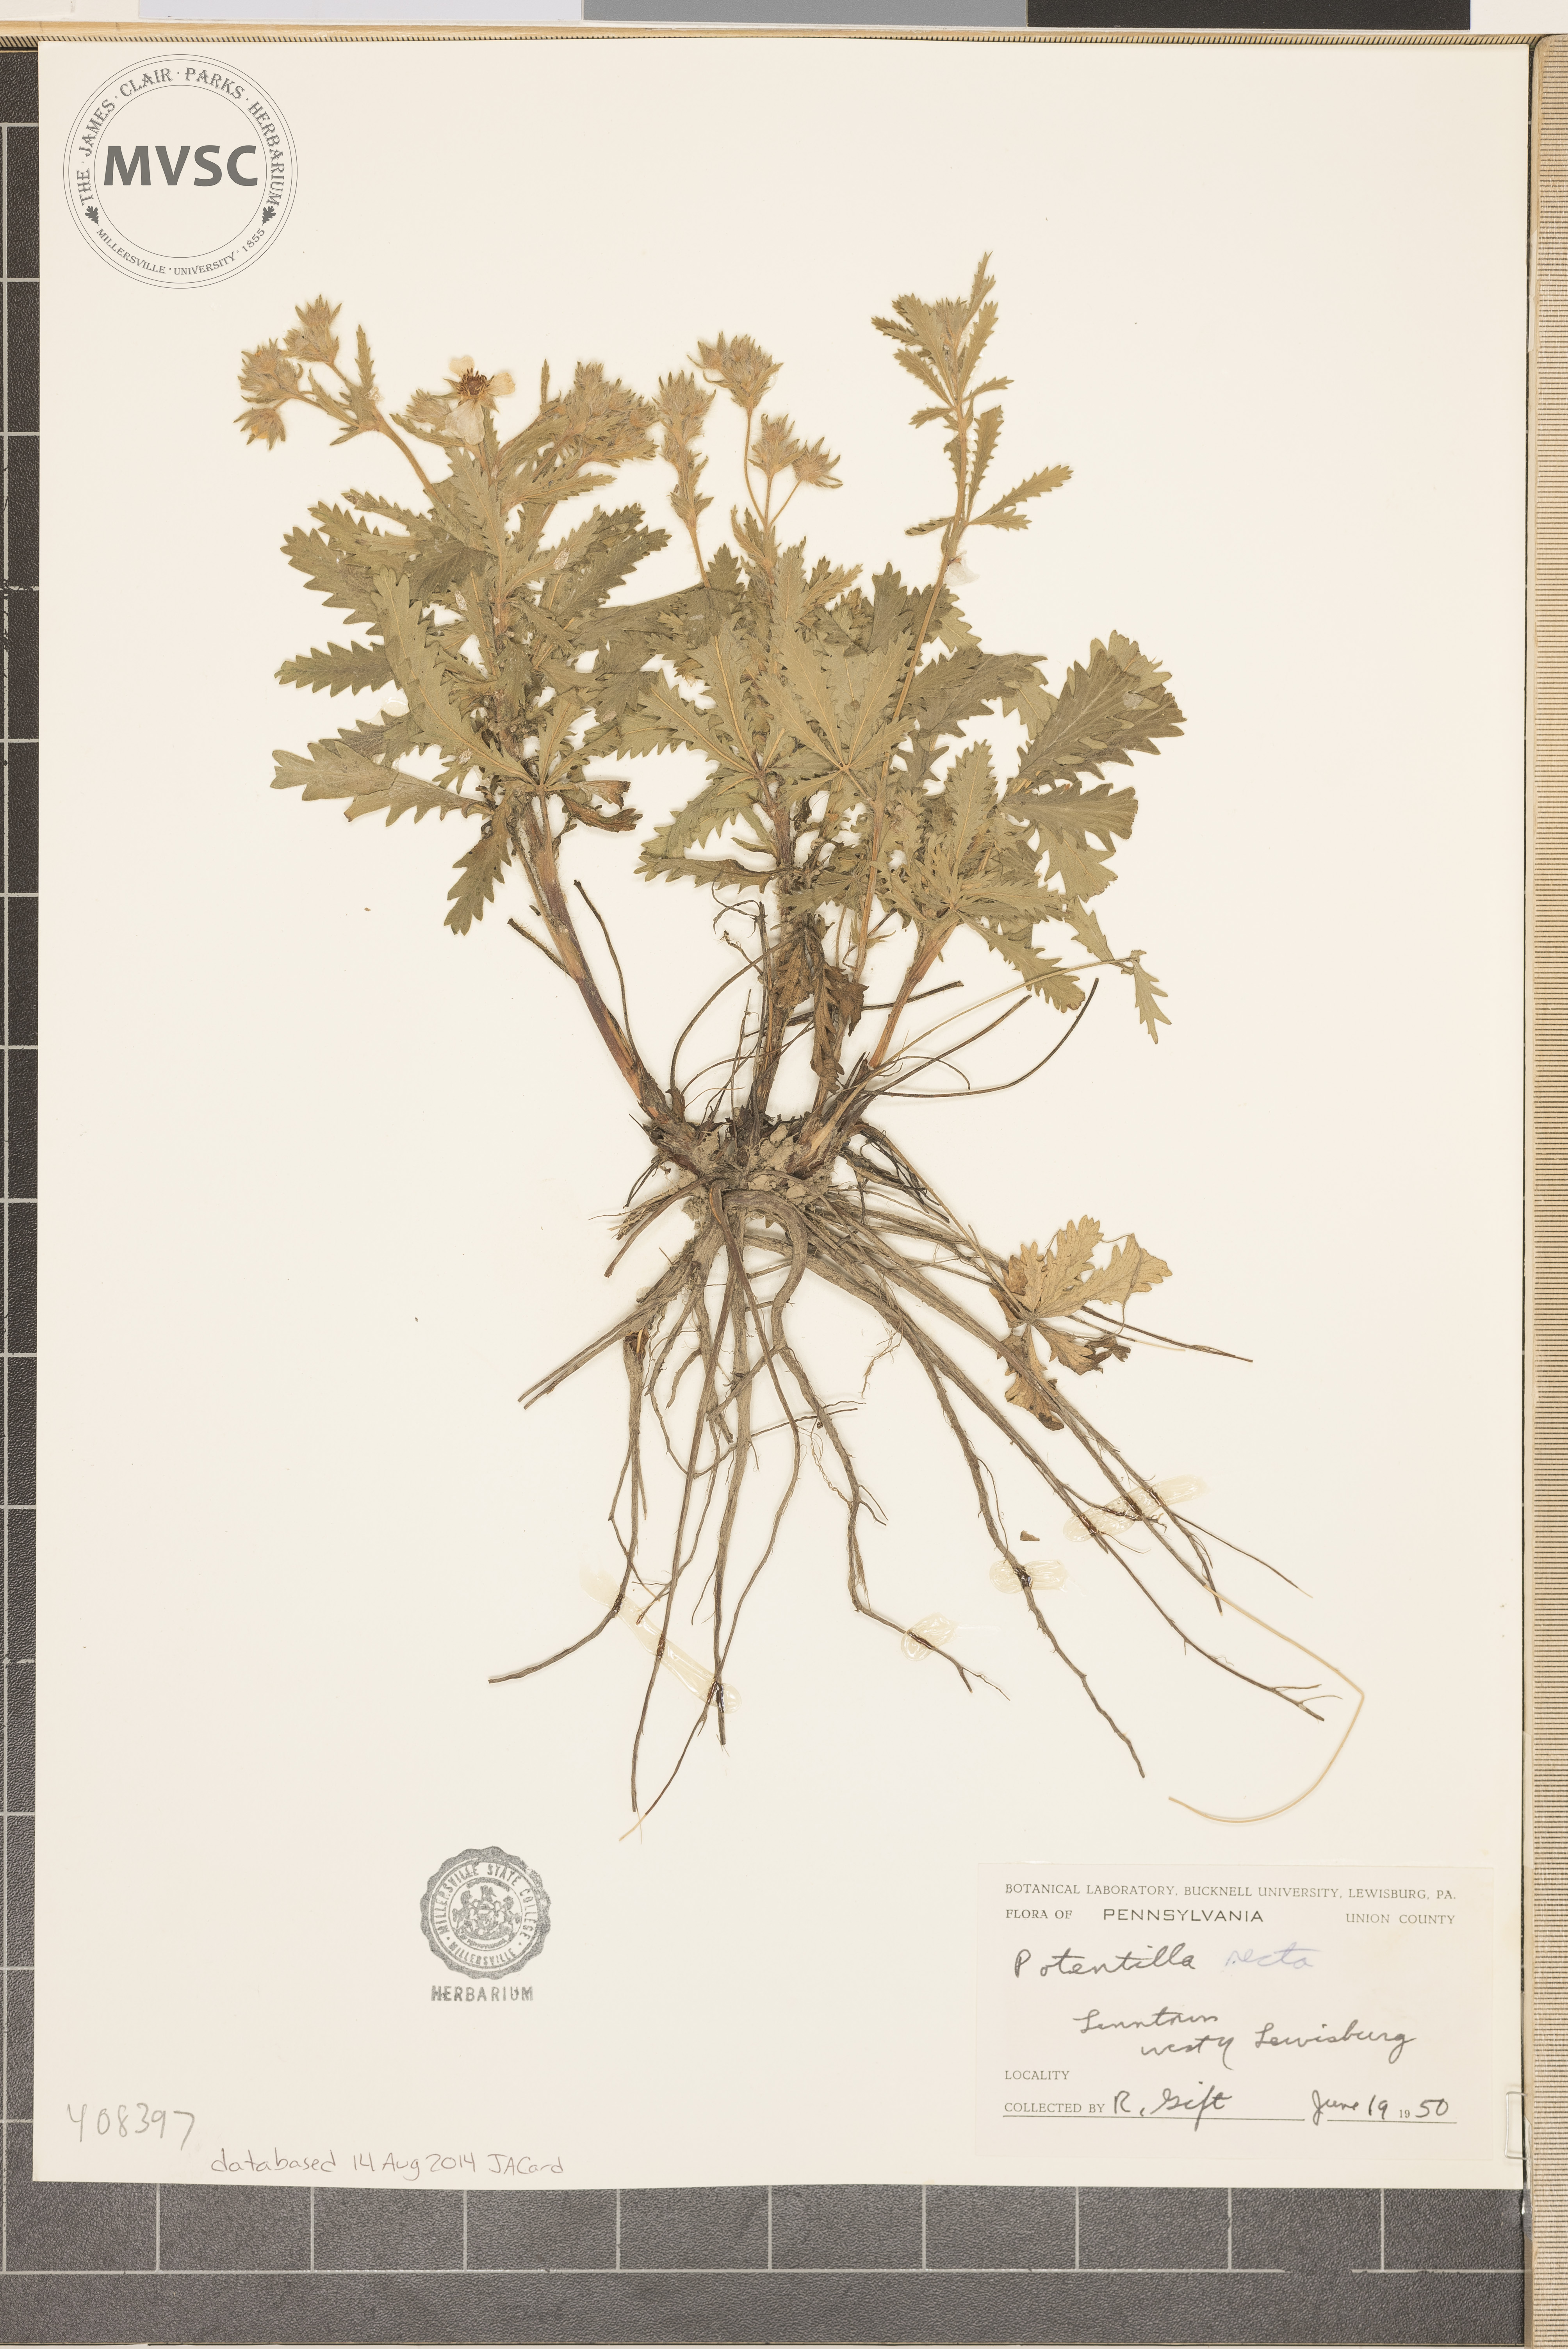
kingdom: Plantae
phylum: Tracheophyta
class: Magnoliopsida
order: Rosales
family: Rosaceae
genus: Potentilla
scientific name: Potentilla recta
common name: Sulphur cinquefoil
